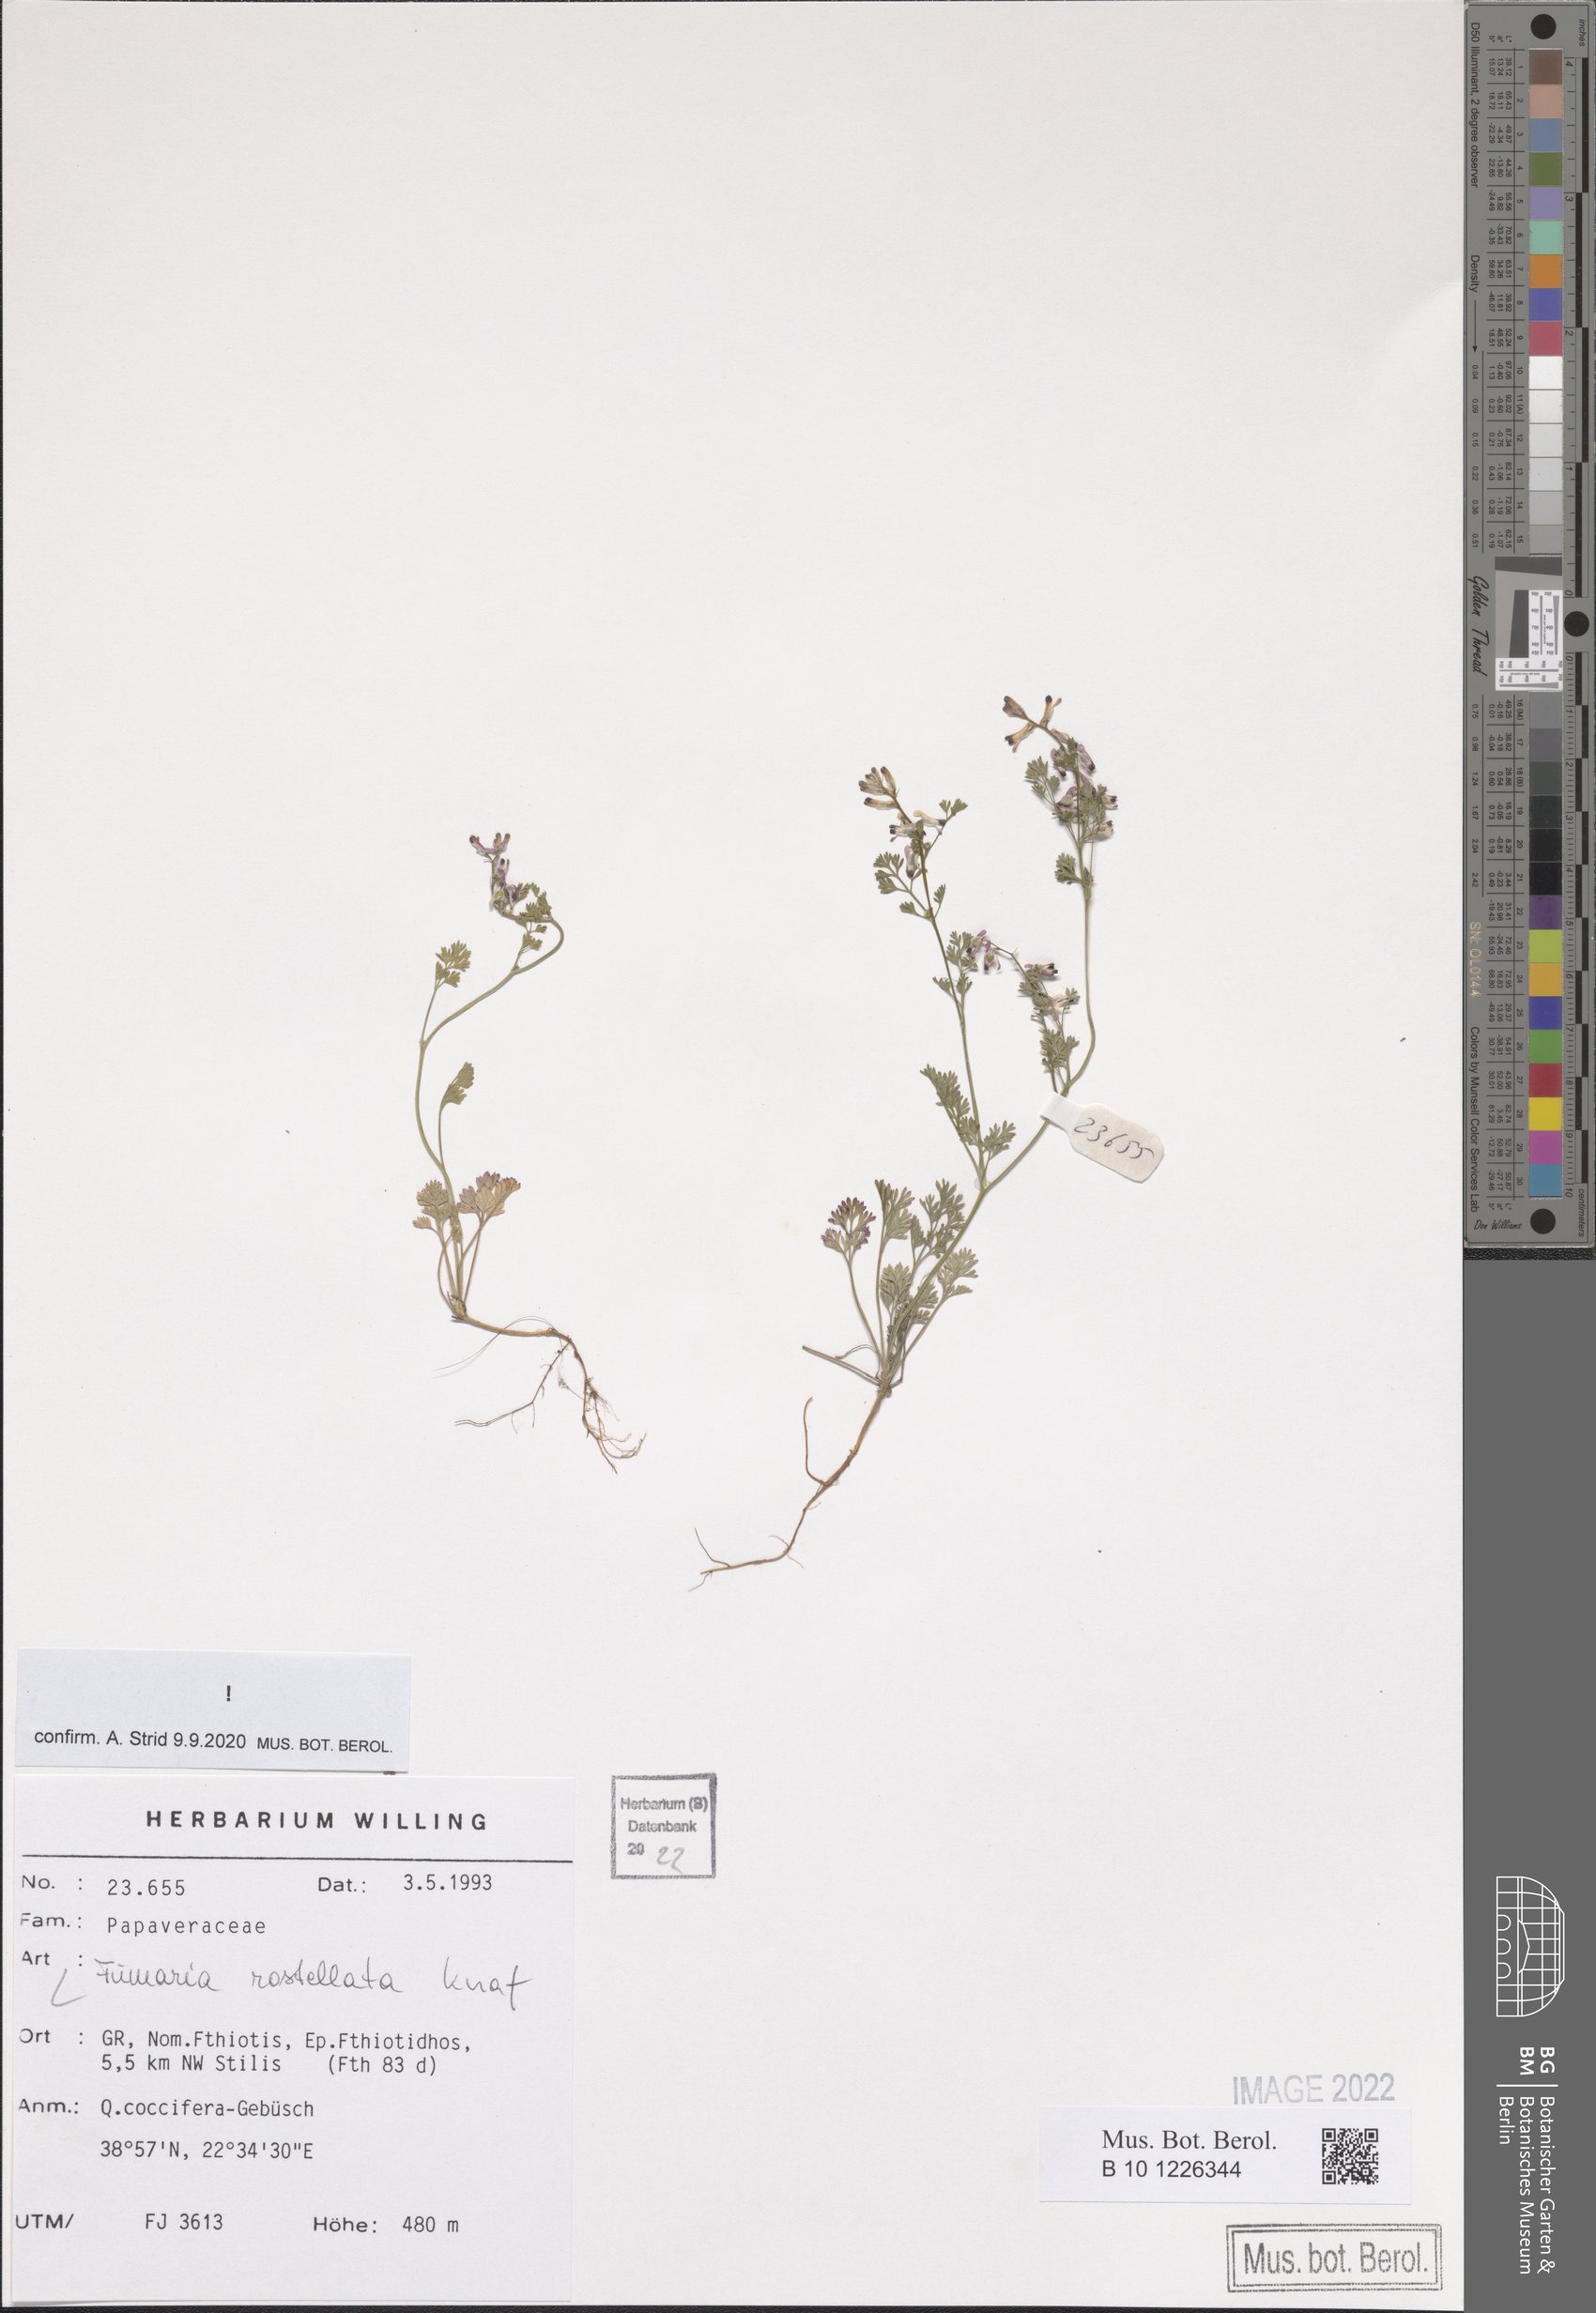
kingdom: Plantae
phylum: Tracheophyta
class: Magnoliopsida
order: Ranunculales
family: Papaveraceae
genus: Fumaria
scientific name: Fumaria rostellata
